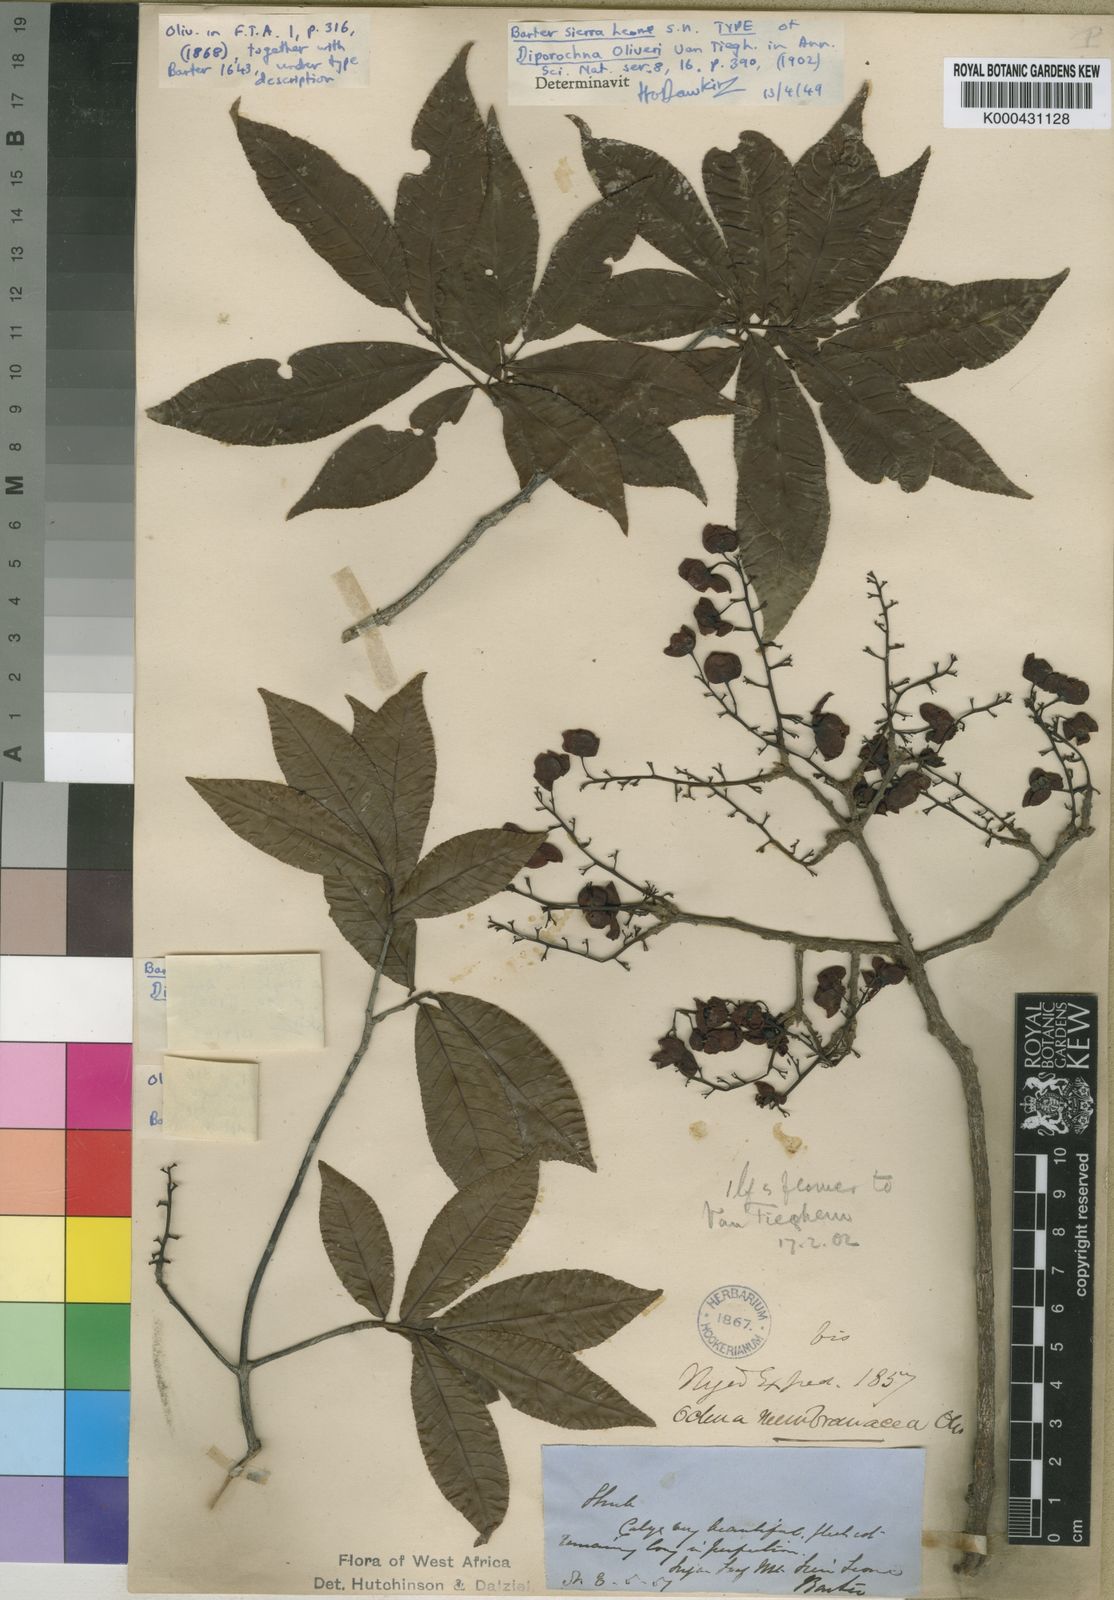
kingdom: Plantae
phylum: Tracheophyta
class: Magnoliopsida
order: Malpighiales
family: Ochnaceae
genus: Ochna
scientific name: Ochna membranacea
